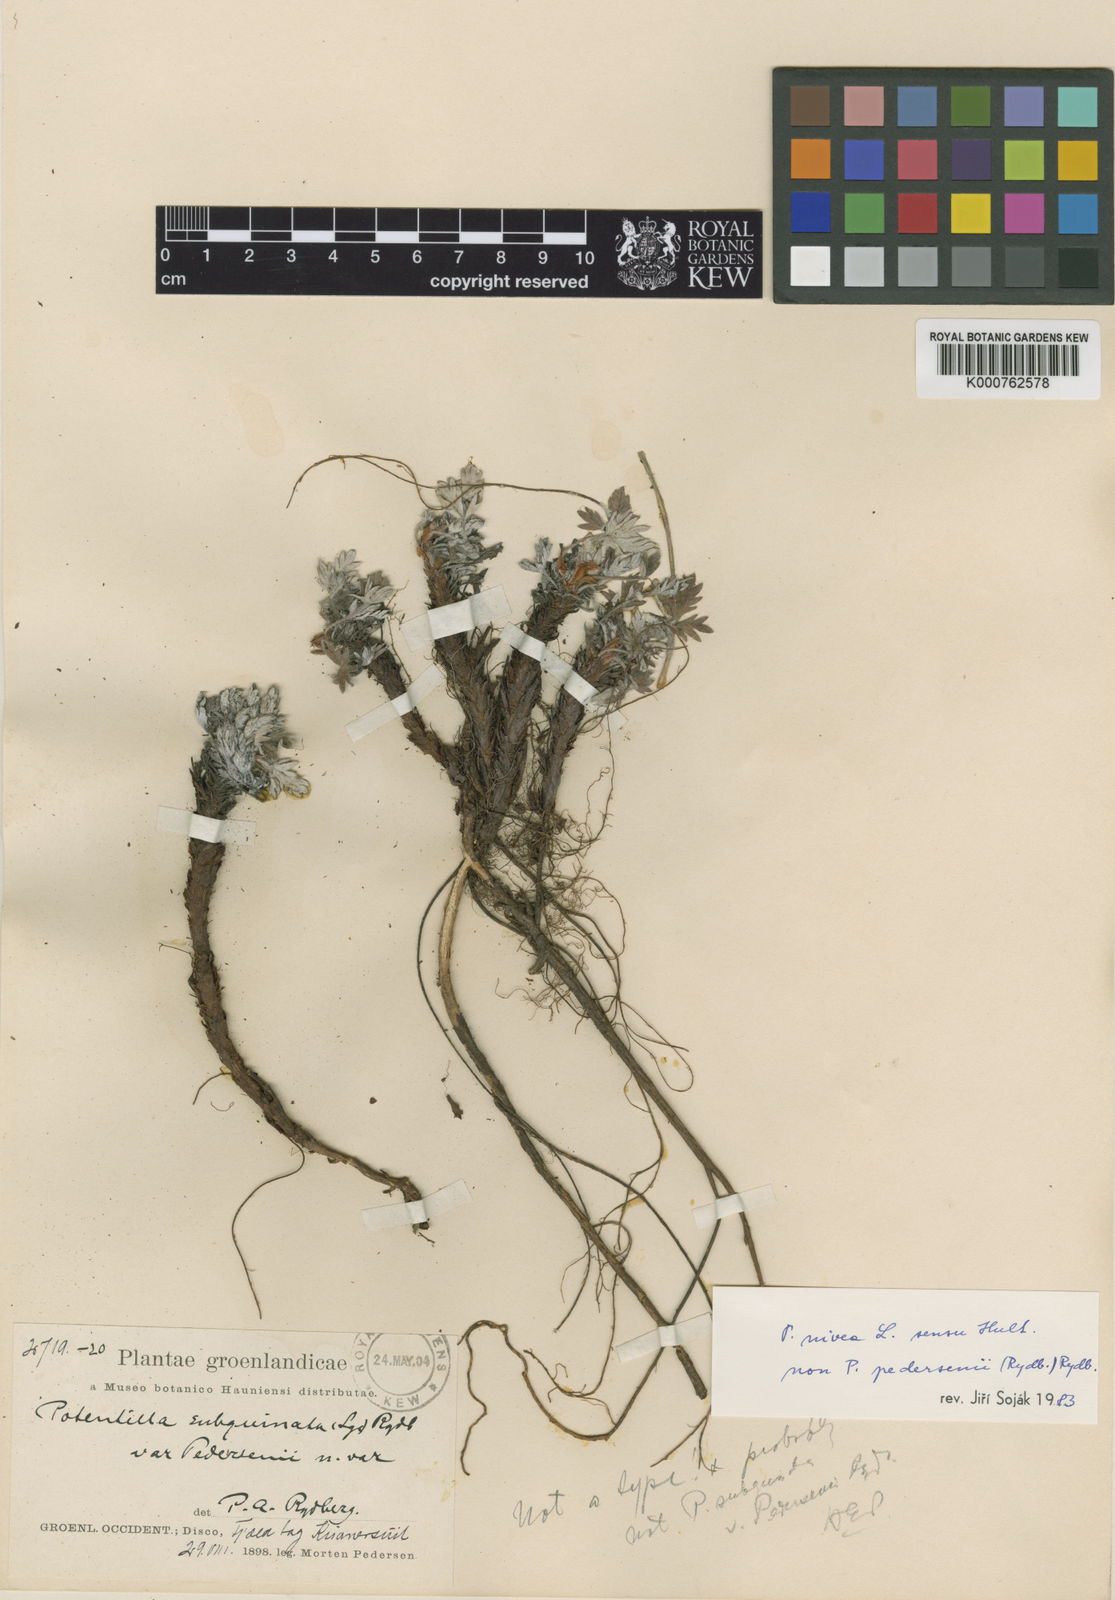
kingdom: Plantae
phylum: Tracheophyta
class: Magnoliopsida
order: Rosales
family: Rosaceae
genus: Potentilla
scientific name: Potentilla pedersenii
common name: Pedersen's cinquefoil
